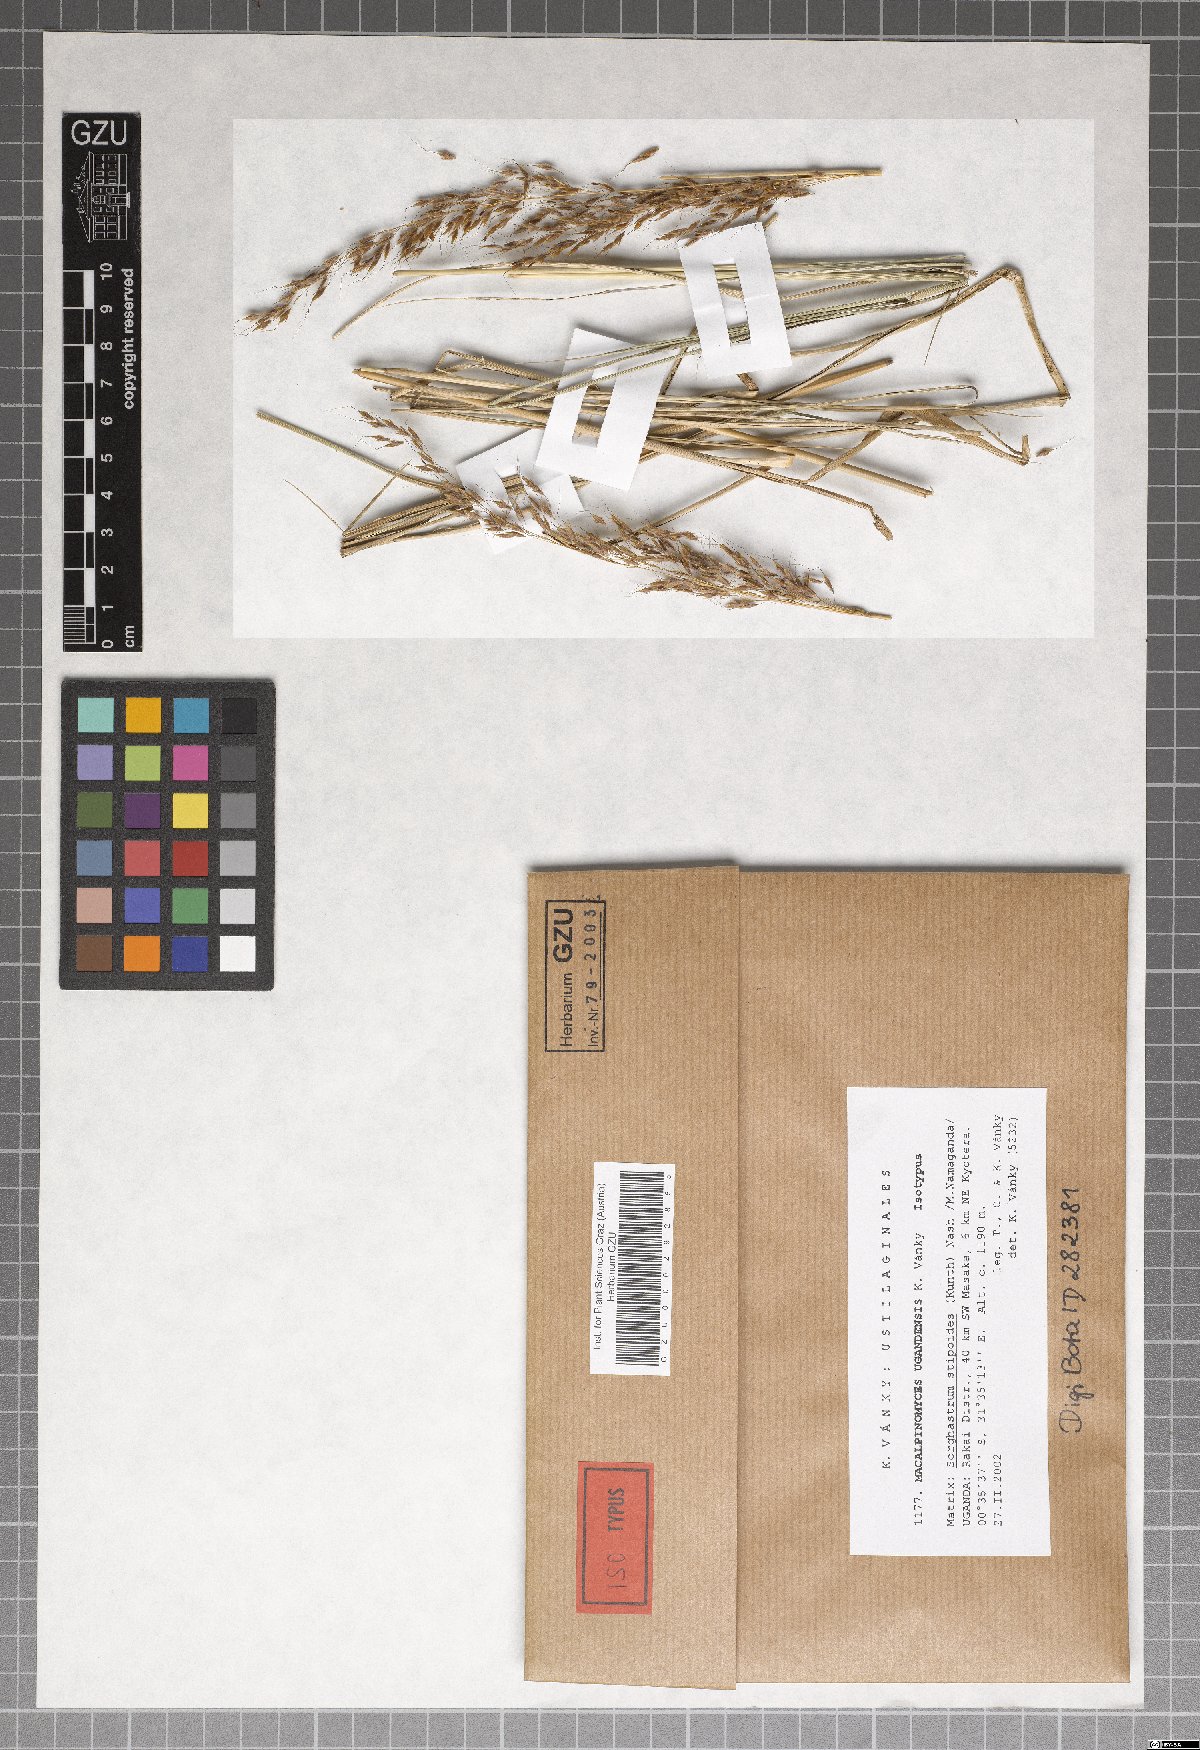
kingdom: Fungi
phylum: Basidiomycota
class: Ustilaginomycetes
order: Ustilaginales
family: Ustilaginaceae
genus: Macalpinomyces
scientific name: Macalpinomyces ugandensis
